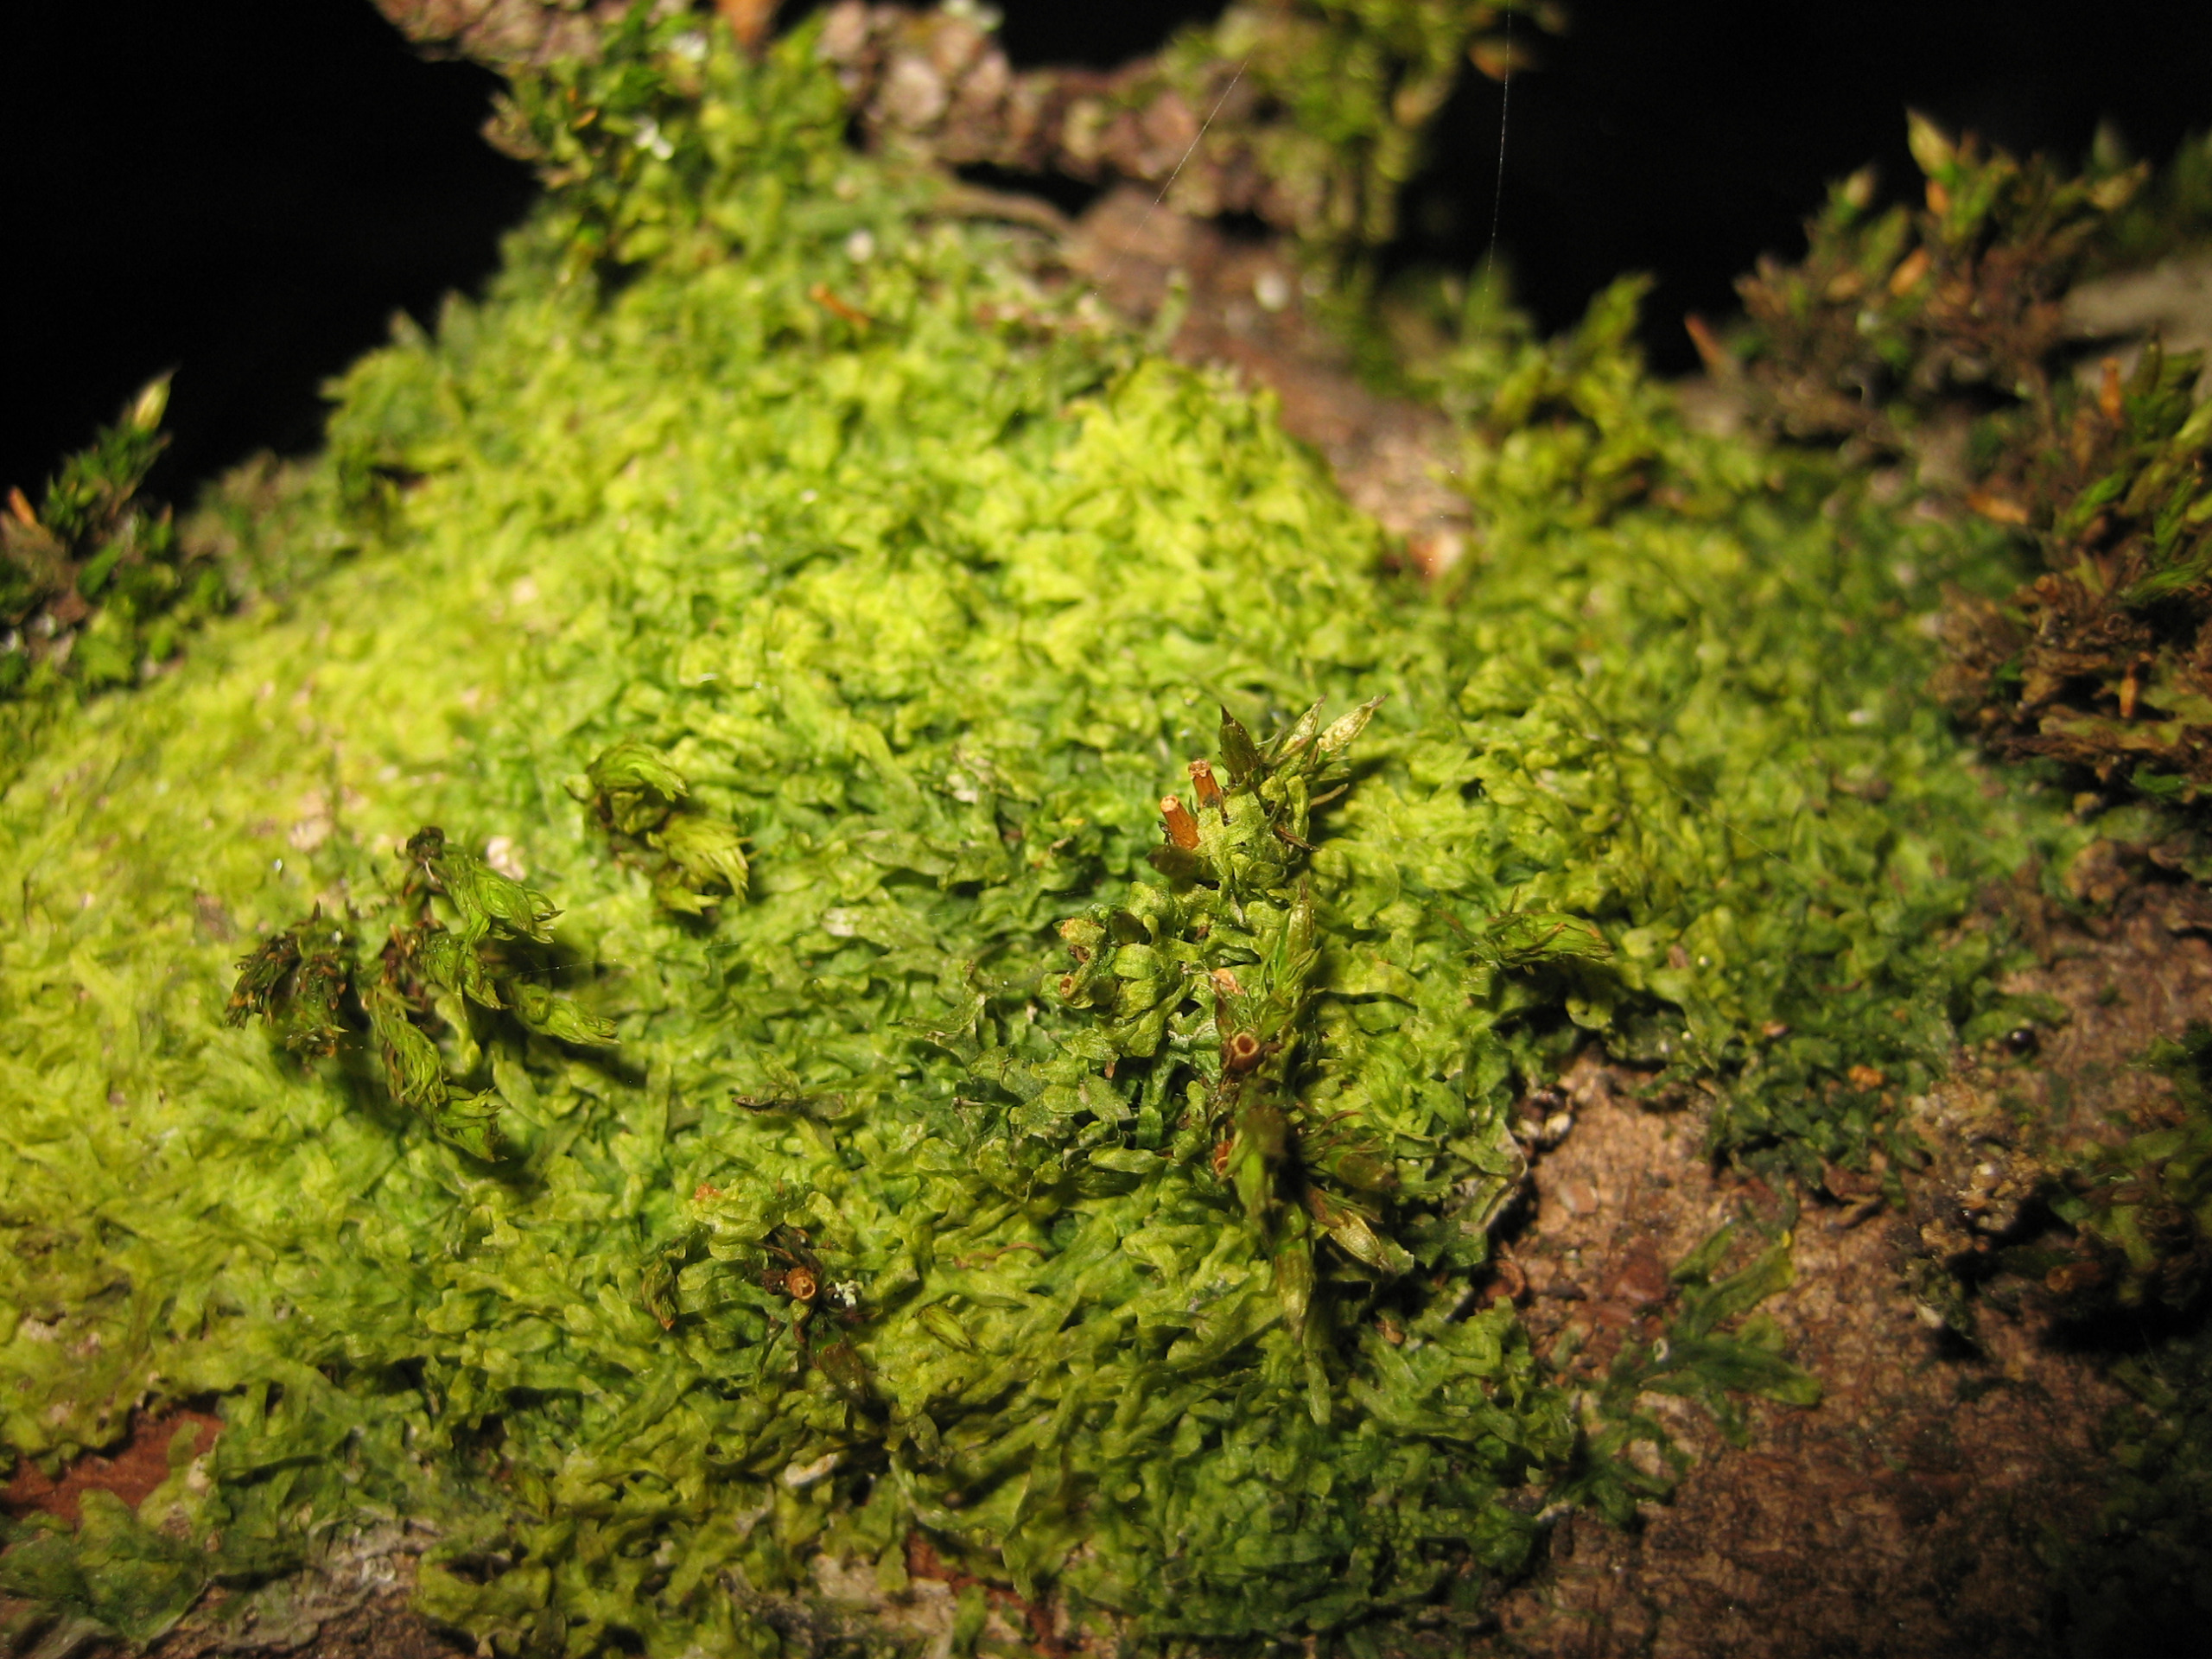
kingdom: Plantae
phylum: Marchantiophyta
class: Jungermanniopsida
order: Metzgeriales
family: Metzgeriaceae
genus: Metzgeria
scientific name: Metzgeria furcata
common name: Almindelig gaffelløv
